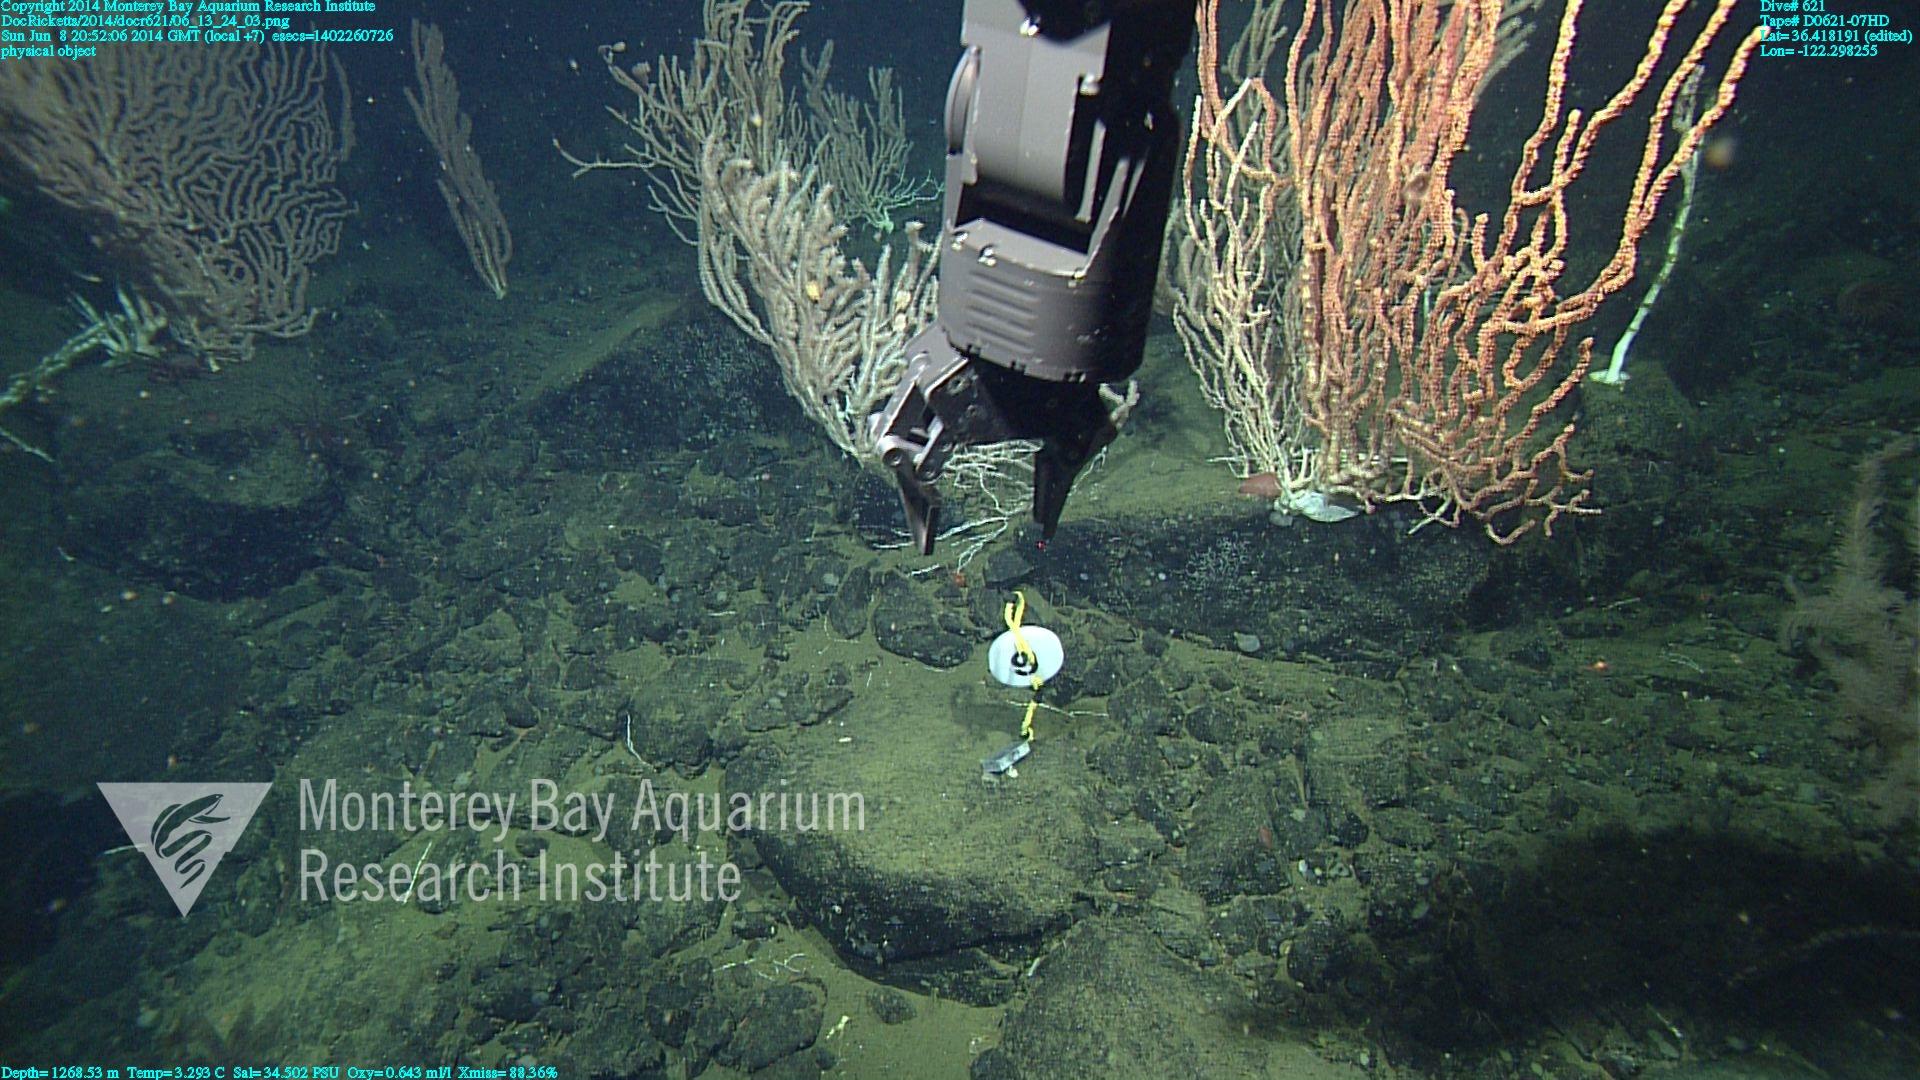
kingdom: Animalia
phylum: Cnidaria
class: Anthozoa
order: Scleralcyonacea
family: Keratoisididae
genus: Keratoisis
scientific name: Keratoisis
